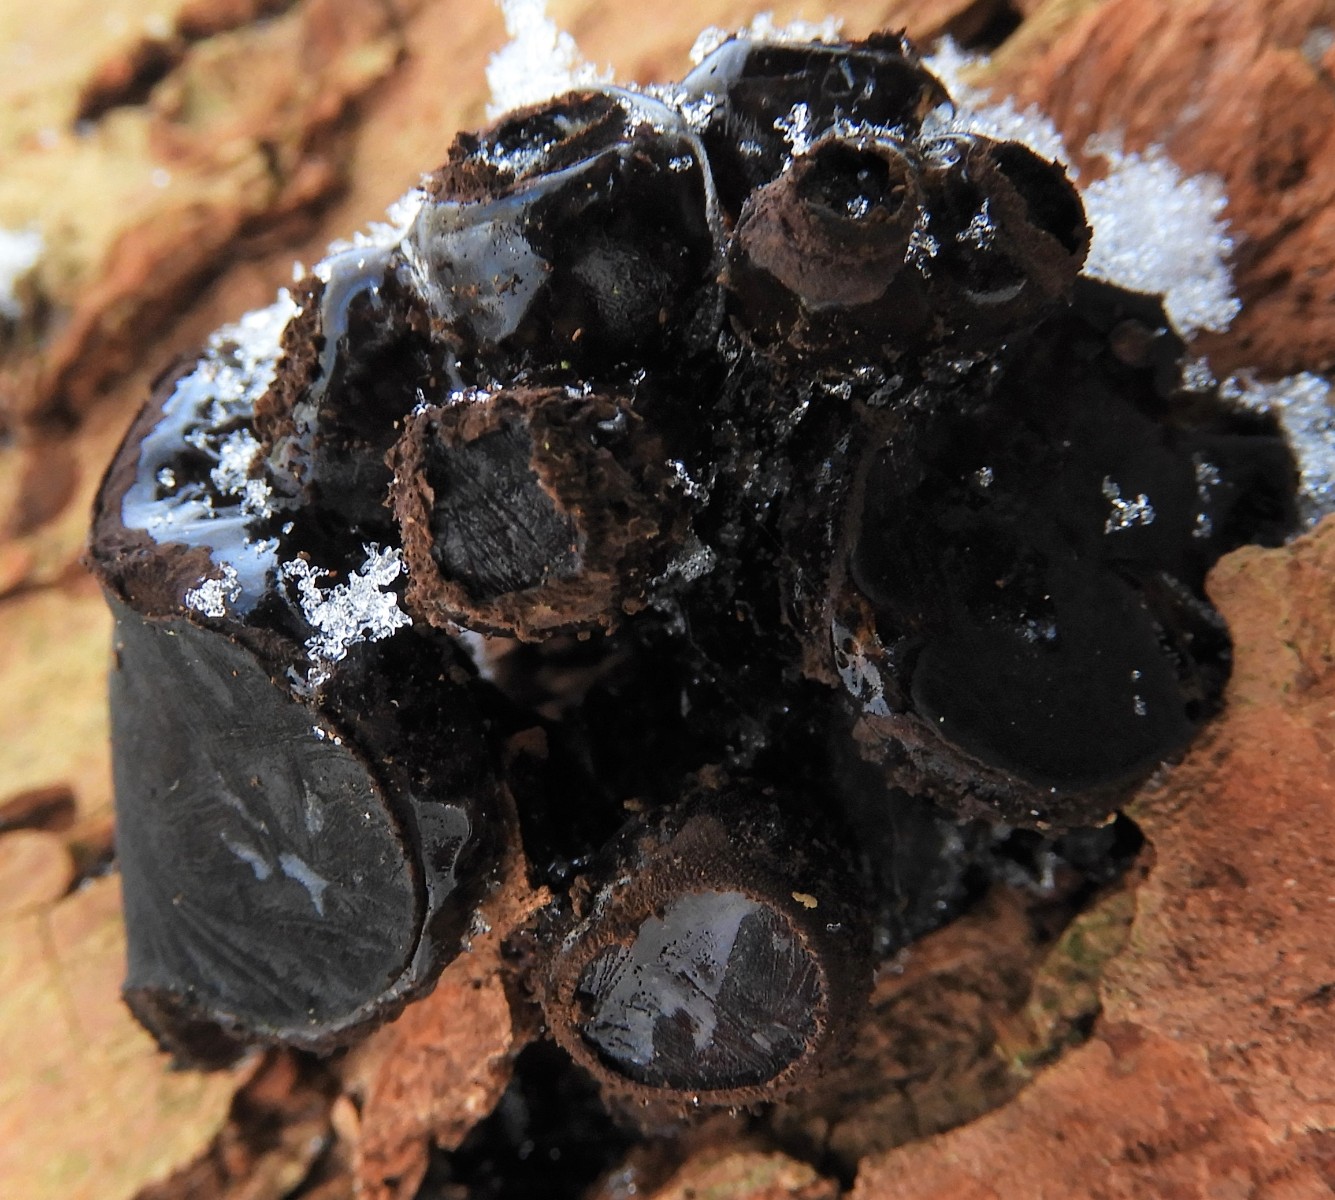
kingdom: Fungi
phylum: Ascomycota
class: Leotiomycetes
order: Phacidiales
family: Phacidiaceae
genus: Bulgaria
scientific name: Bulgaria inquinans
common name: afsmittende topsvamp
